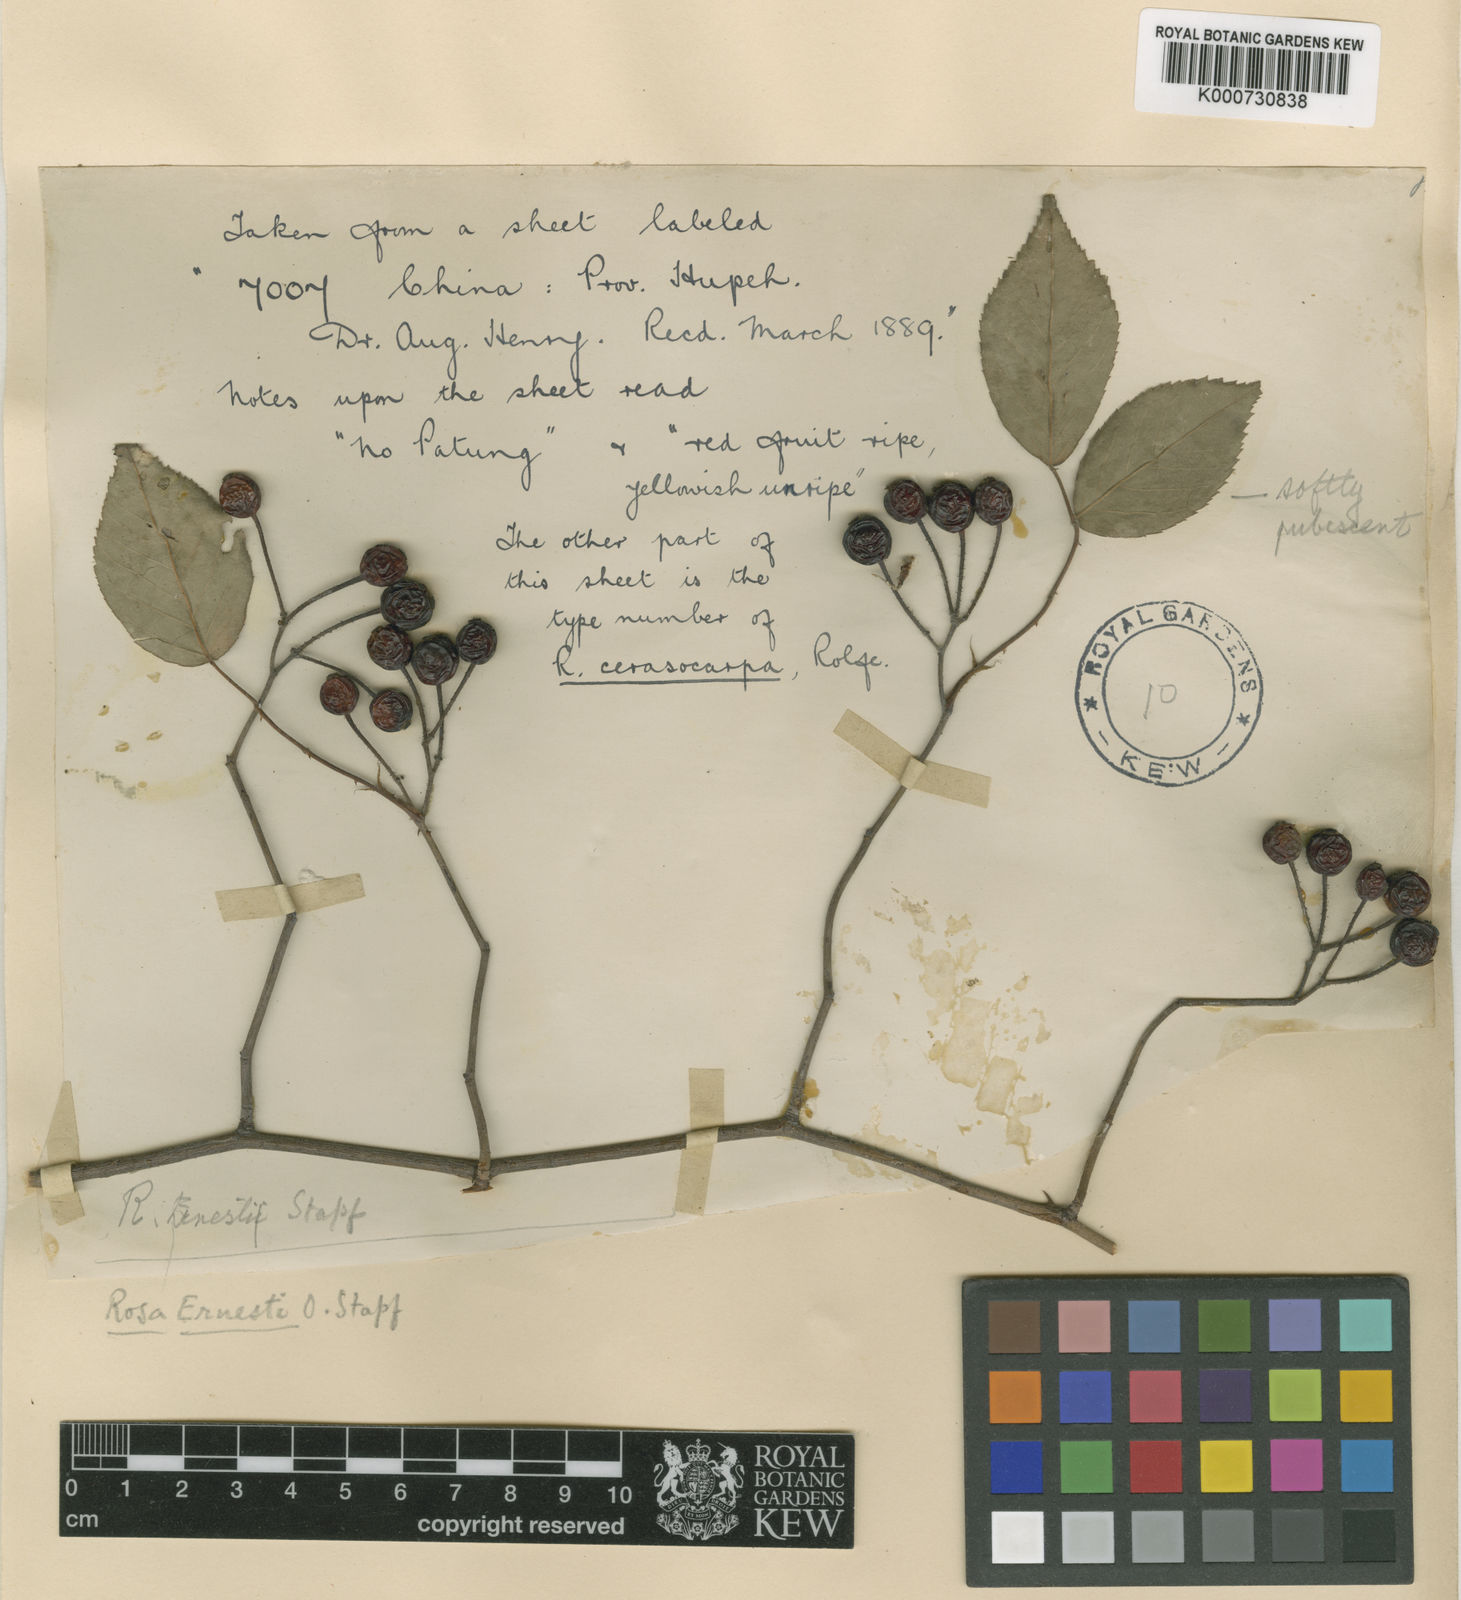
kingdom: Plantae
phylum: Tracheophyta
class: Magnoliopsida
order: Rosales
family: Rosaceae
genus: Rosa
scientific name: Rosa cerasocarpa
